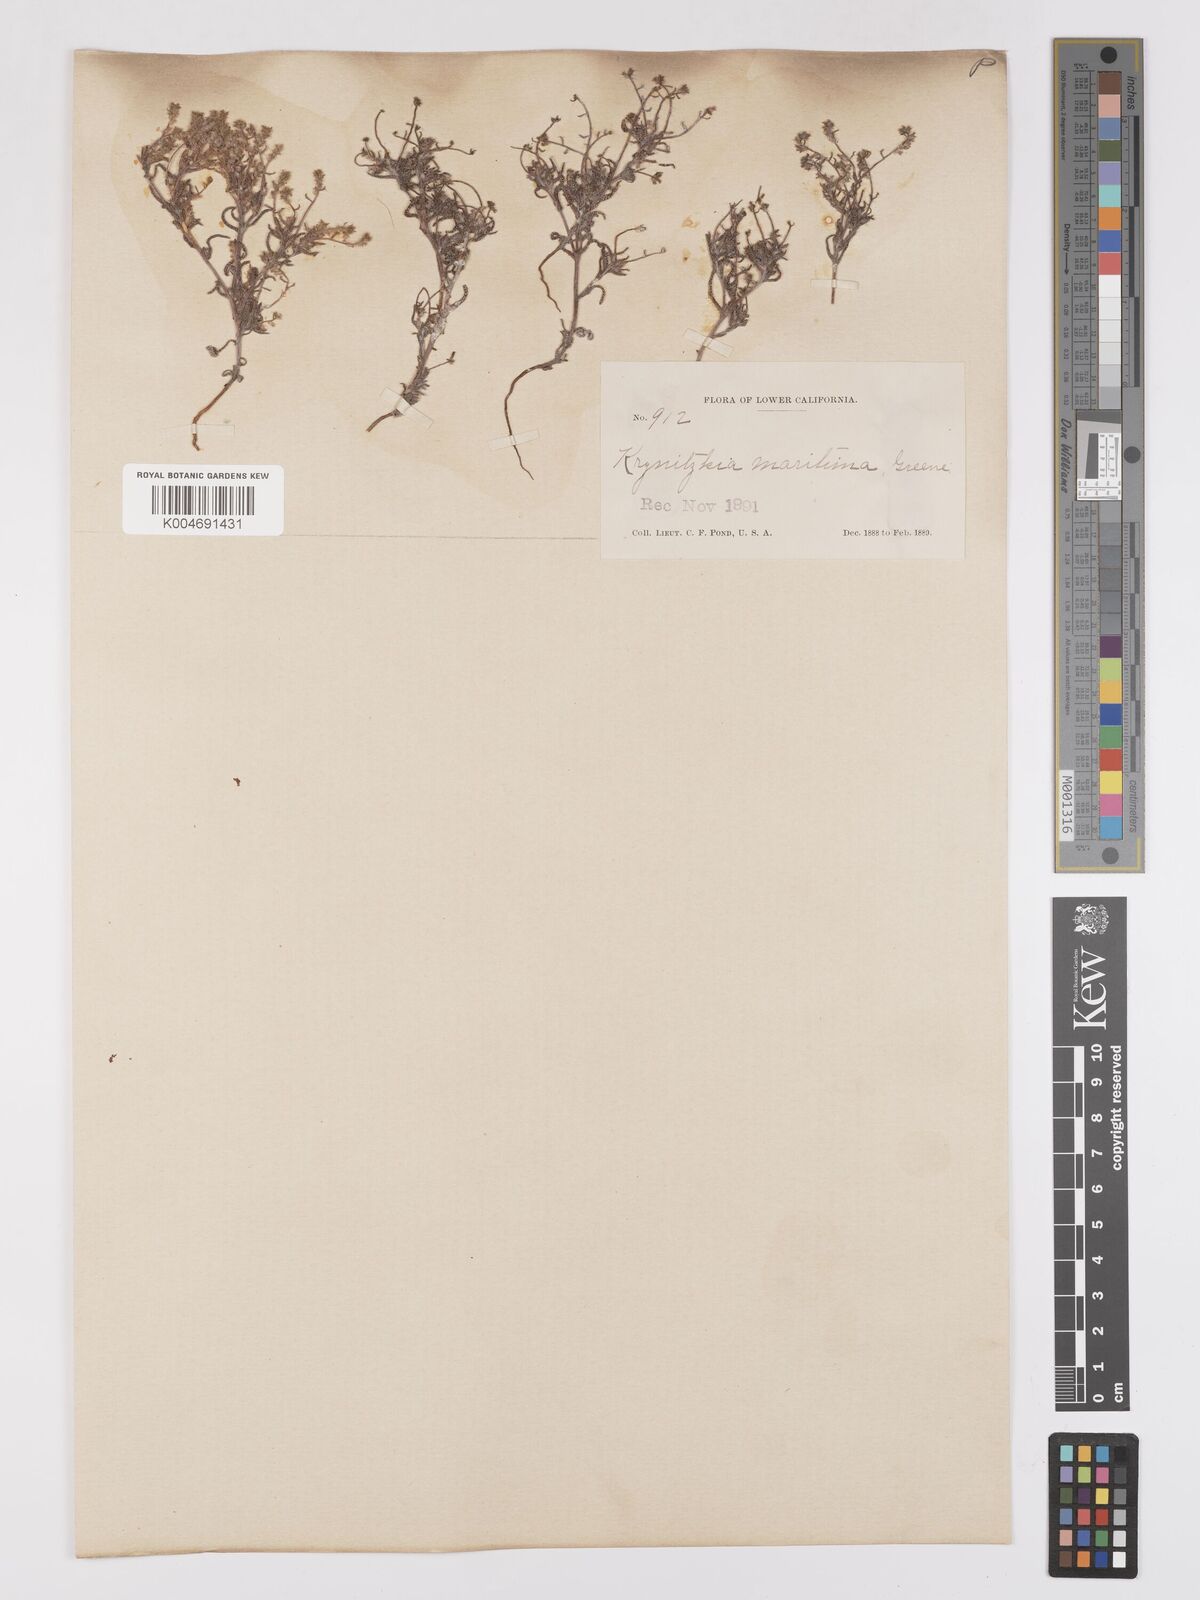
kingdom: Plantae
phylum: Tracheophyta
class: Magnoliopsida
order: Boraginales
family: Boraginaceae
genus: Cryptantha
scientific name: Cryptantha maritima
